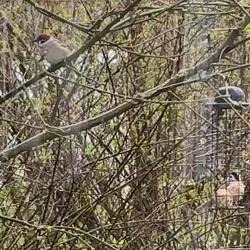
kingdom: Animalia
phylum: Chordata
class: Aves
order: Passeriformes
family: Passeridae
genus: Passer
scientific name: Passer montanus
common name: Skovspurv
